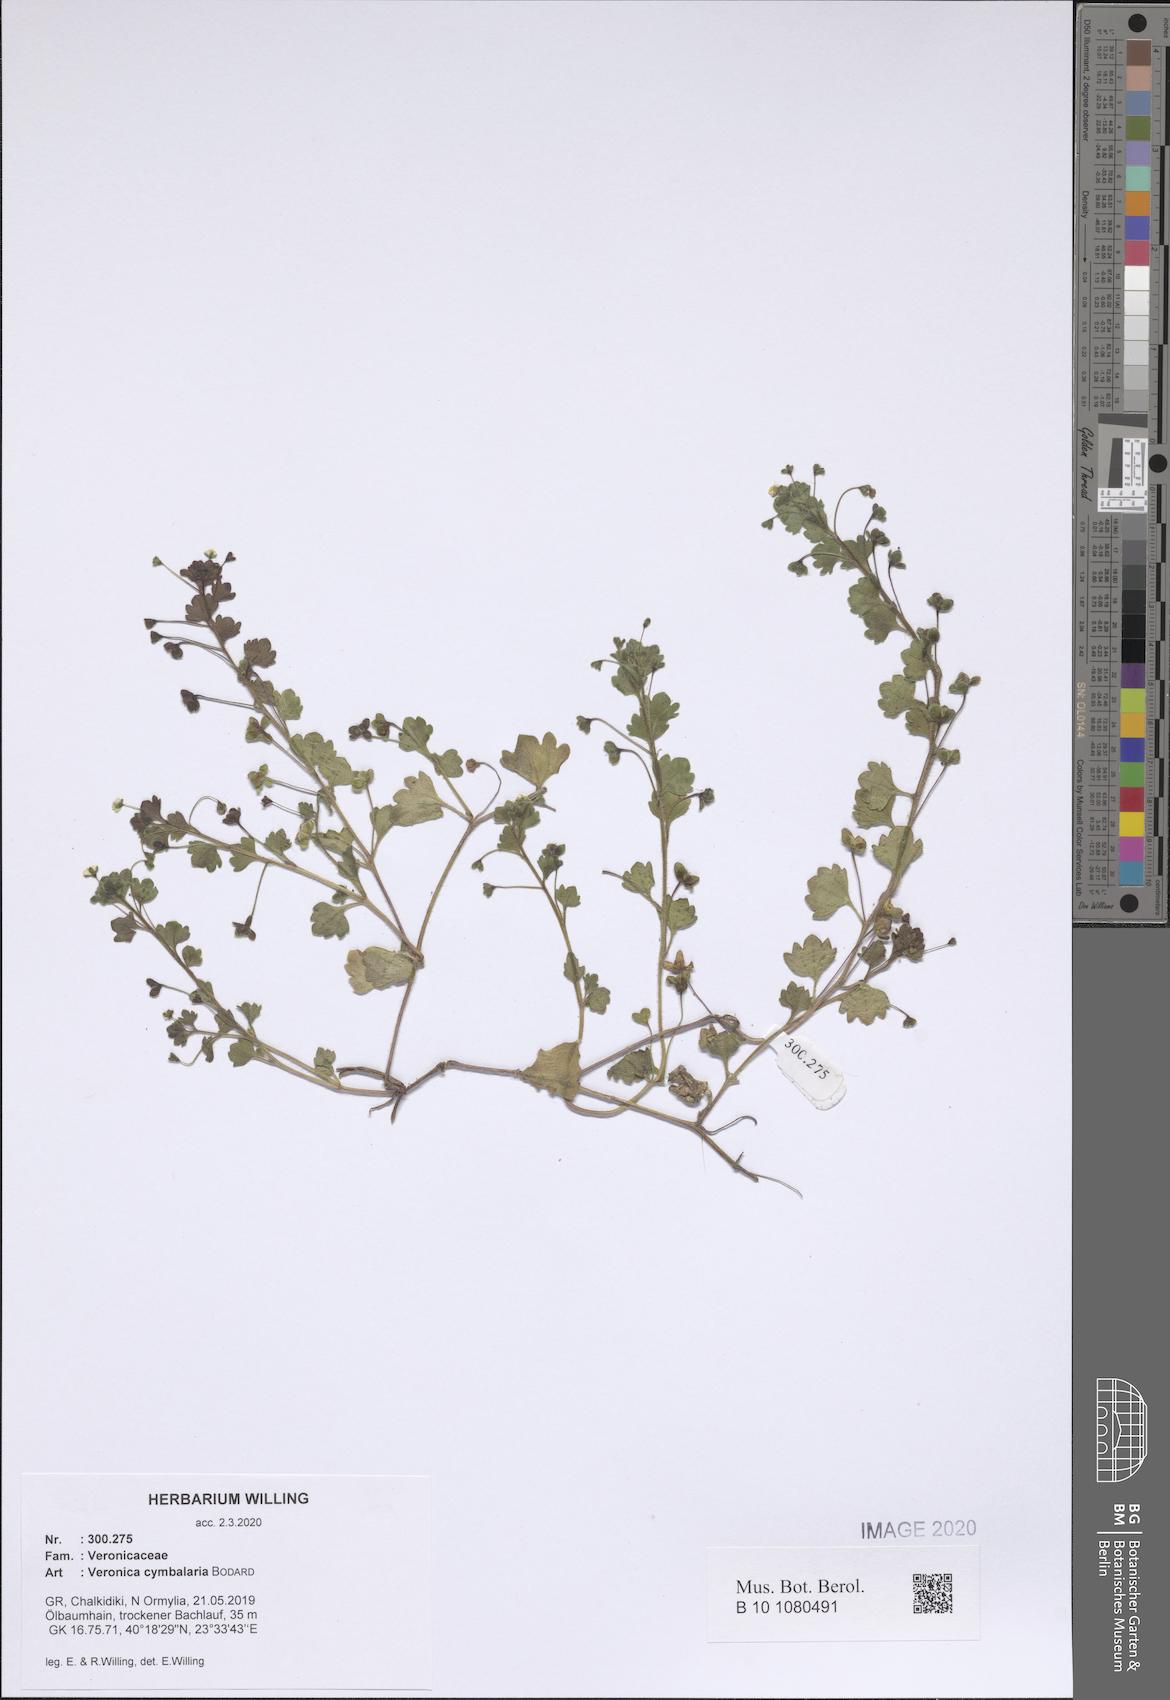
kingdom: Plantae
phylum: Tracheophyta
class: Magnoliopsida
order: Lamiales
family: Plantaginaceae
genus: Veronica
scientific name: Veronica cymbalaria
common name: Pale speedwell
